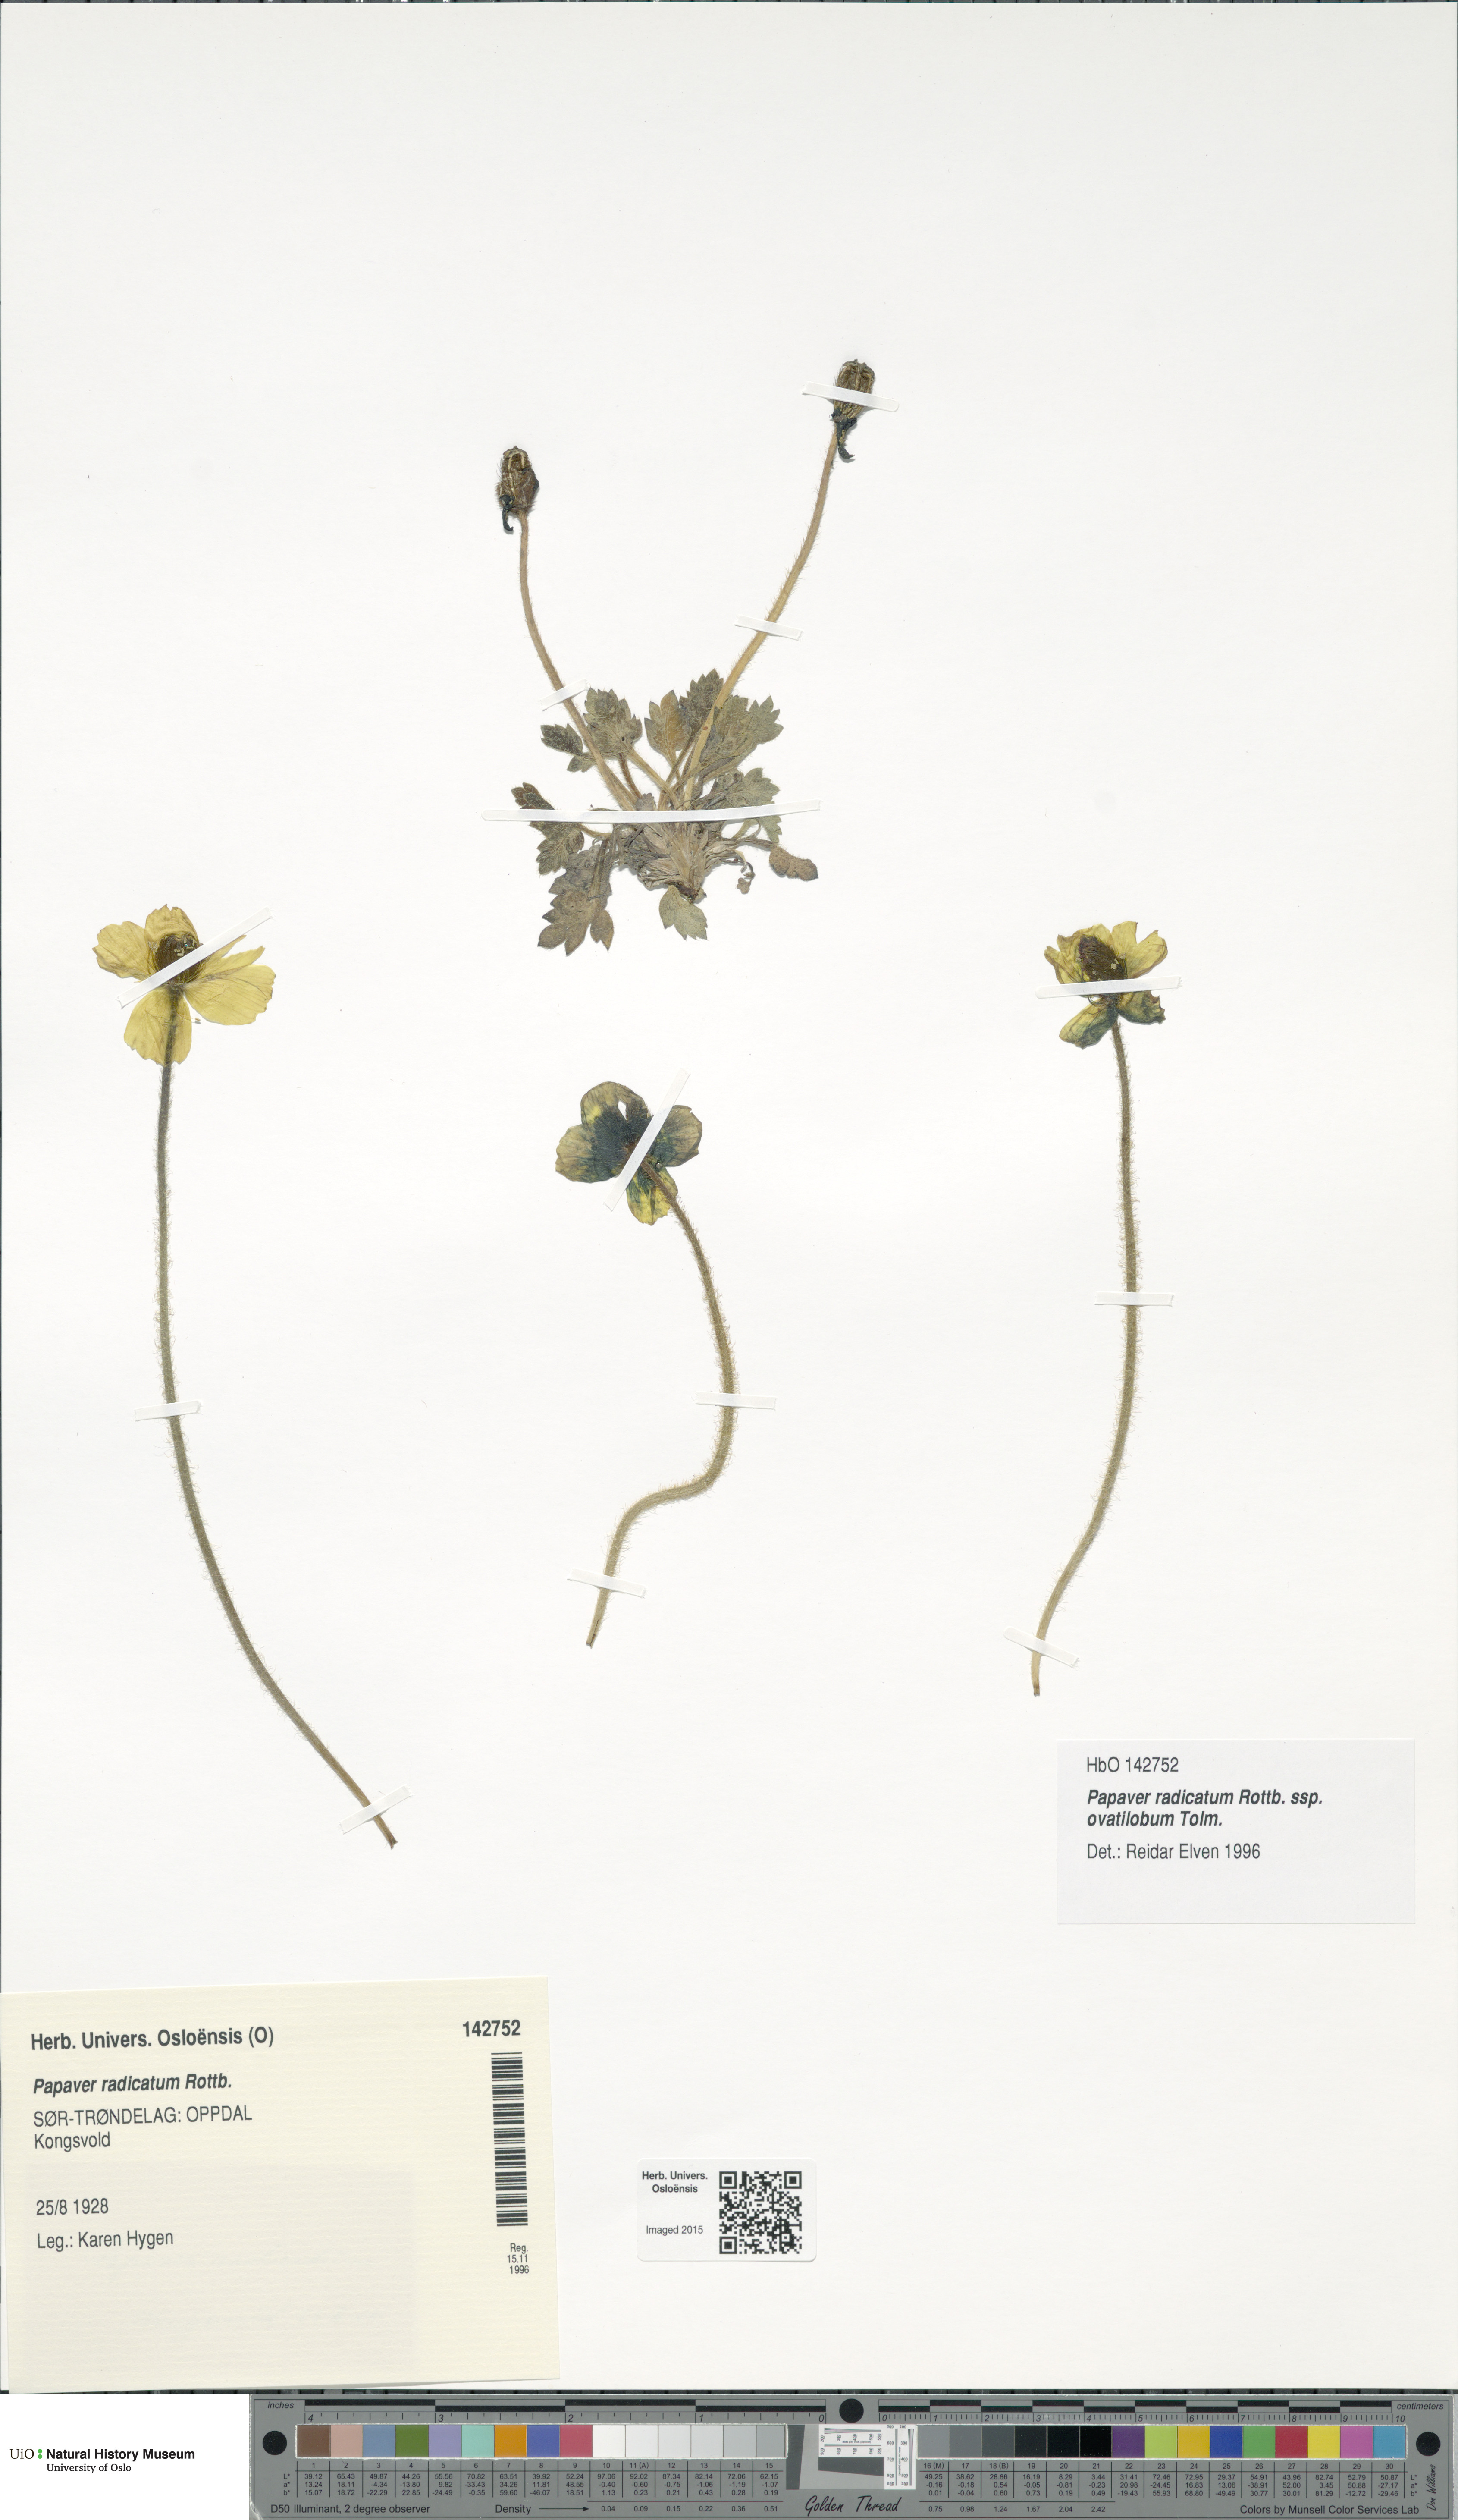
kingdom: Plantae
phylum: Tracheophyta
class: Magnoliopsida
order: Ranunculales
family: Papaveraceae
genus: Papaver
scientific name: Papaver radicatum
